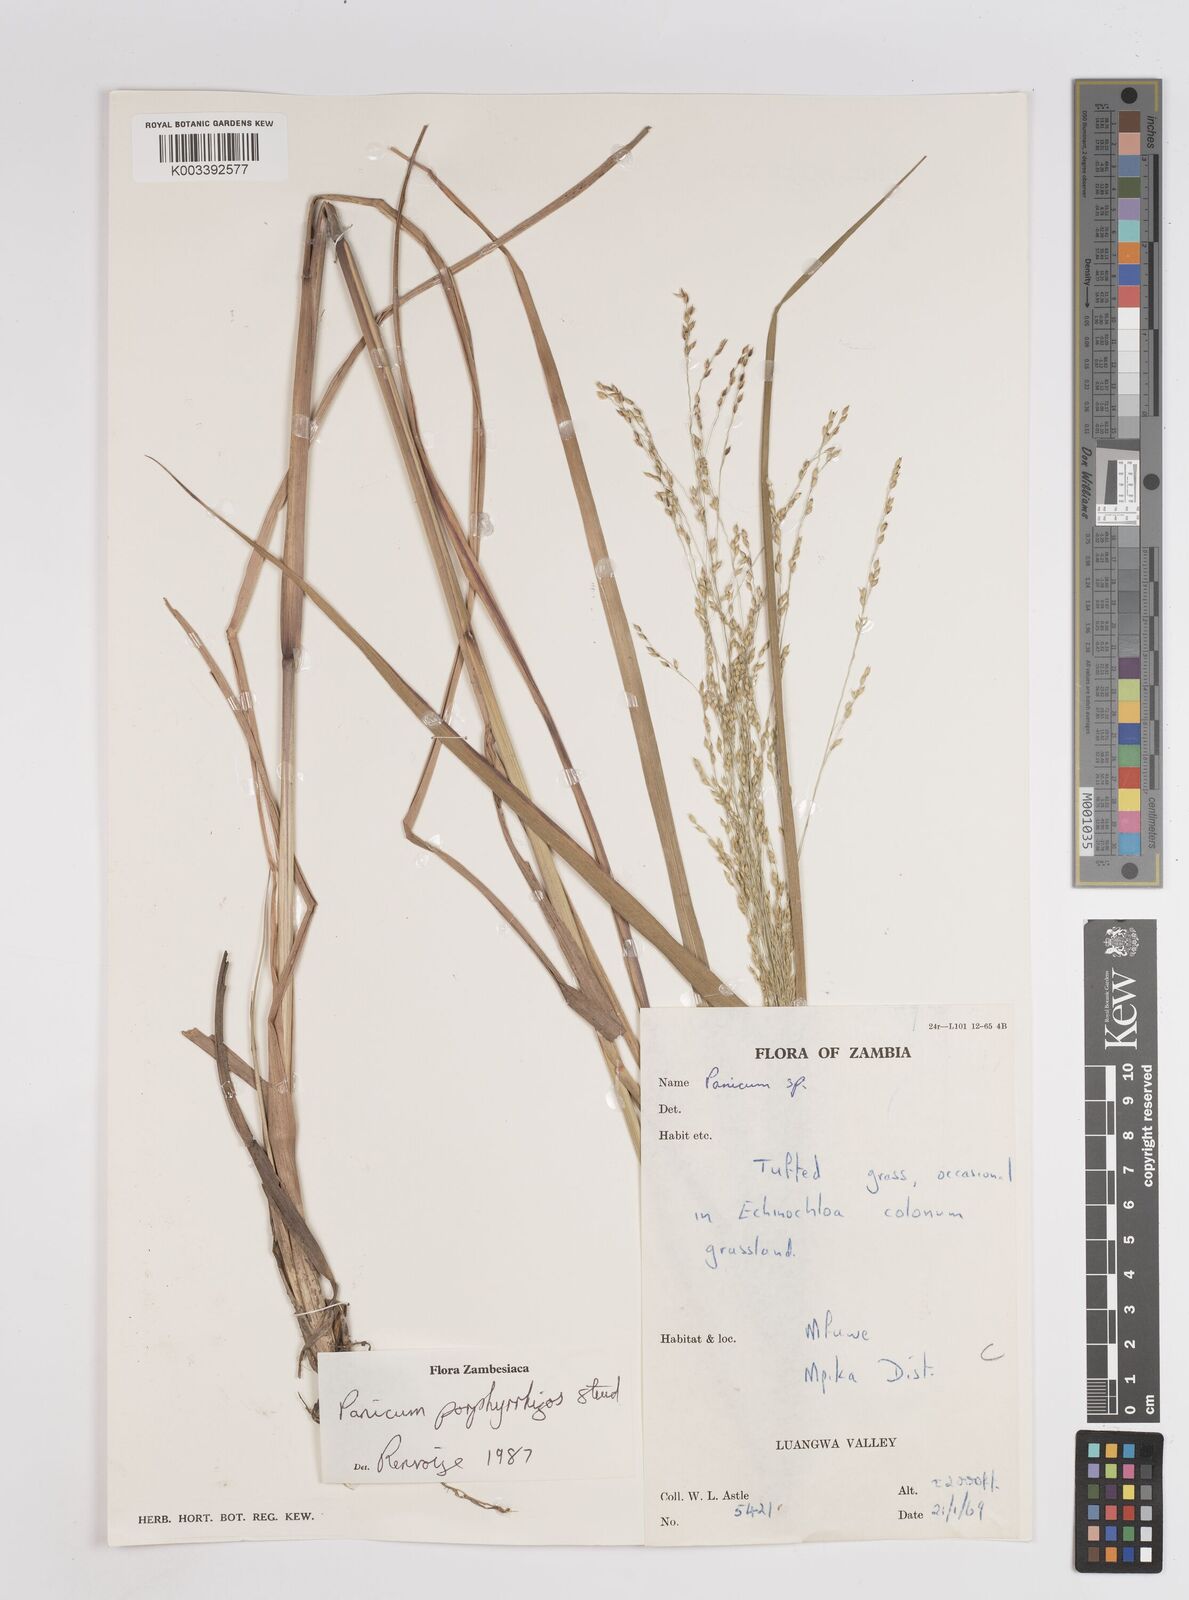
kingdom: Plantae
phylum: Tracheophyta
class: Liliopsida
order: Poales
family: Poaceae
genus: Panicum
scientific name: Panicum porphyrrhizos
